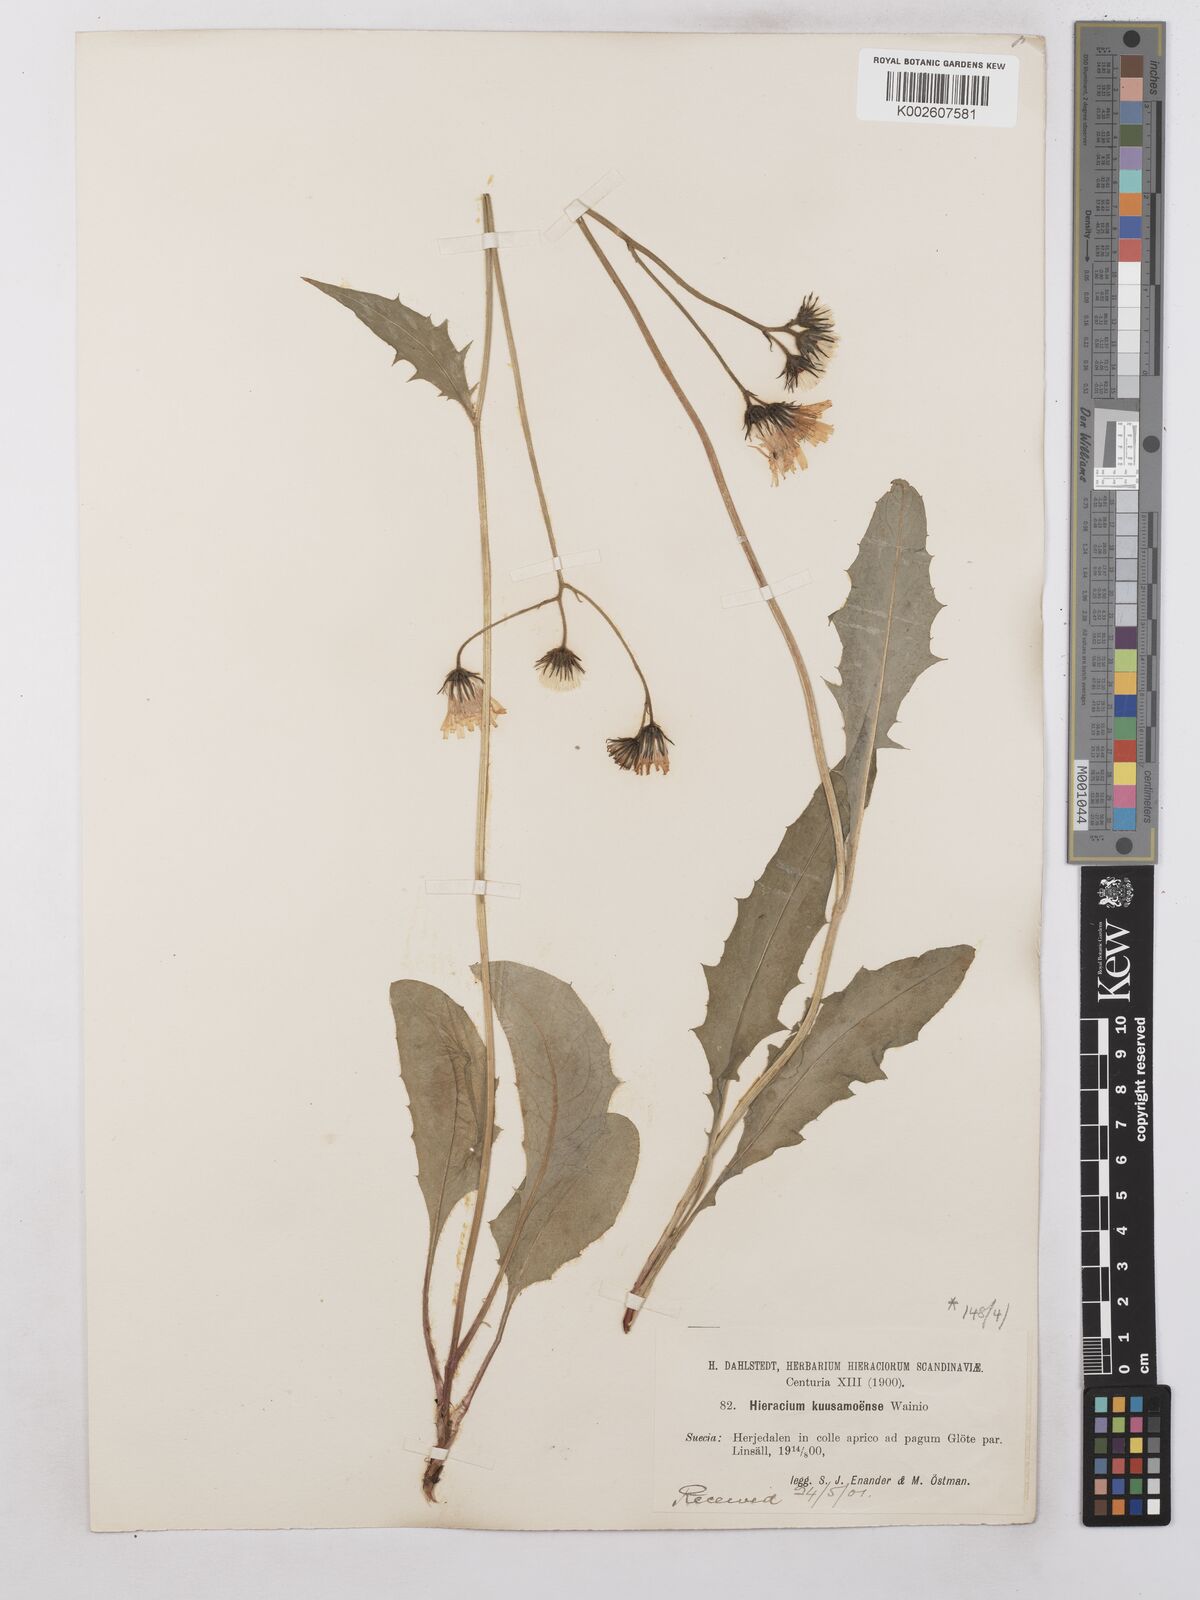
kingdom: Plantae
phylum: Tracheophyta
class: Magnoliopsida
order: Asterales
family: Asteraceae
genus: Hieracium
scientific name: Hieracium subramosum
